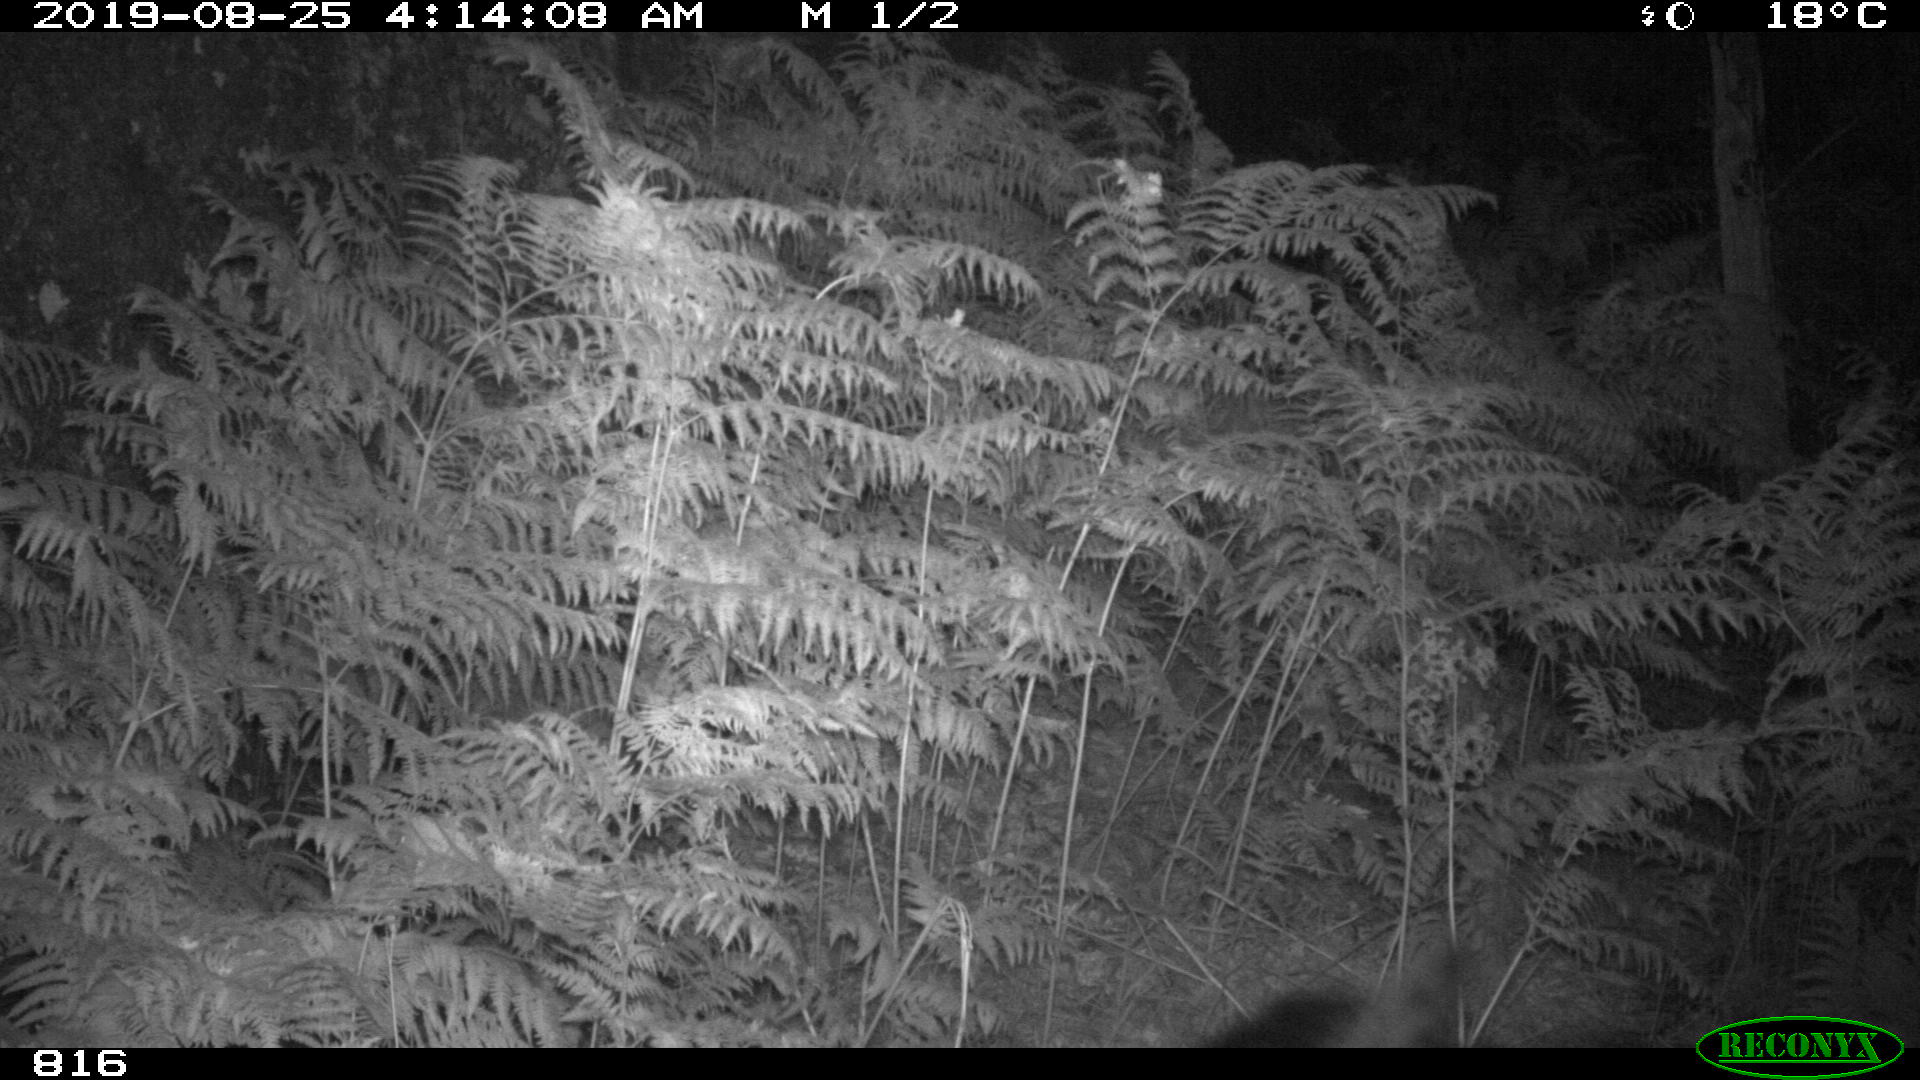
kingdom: Animalia
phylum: Chordata
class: Mammalia
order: Perissodactyla
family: Equidae
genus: Equus
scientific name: Equus caballus
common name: Horse
